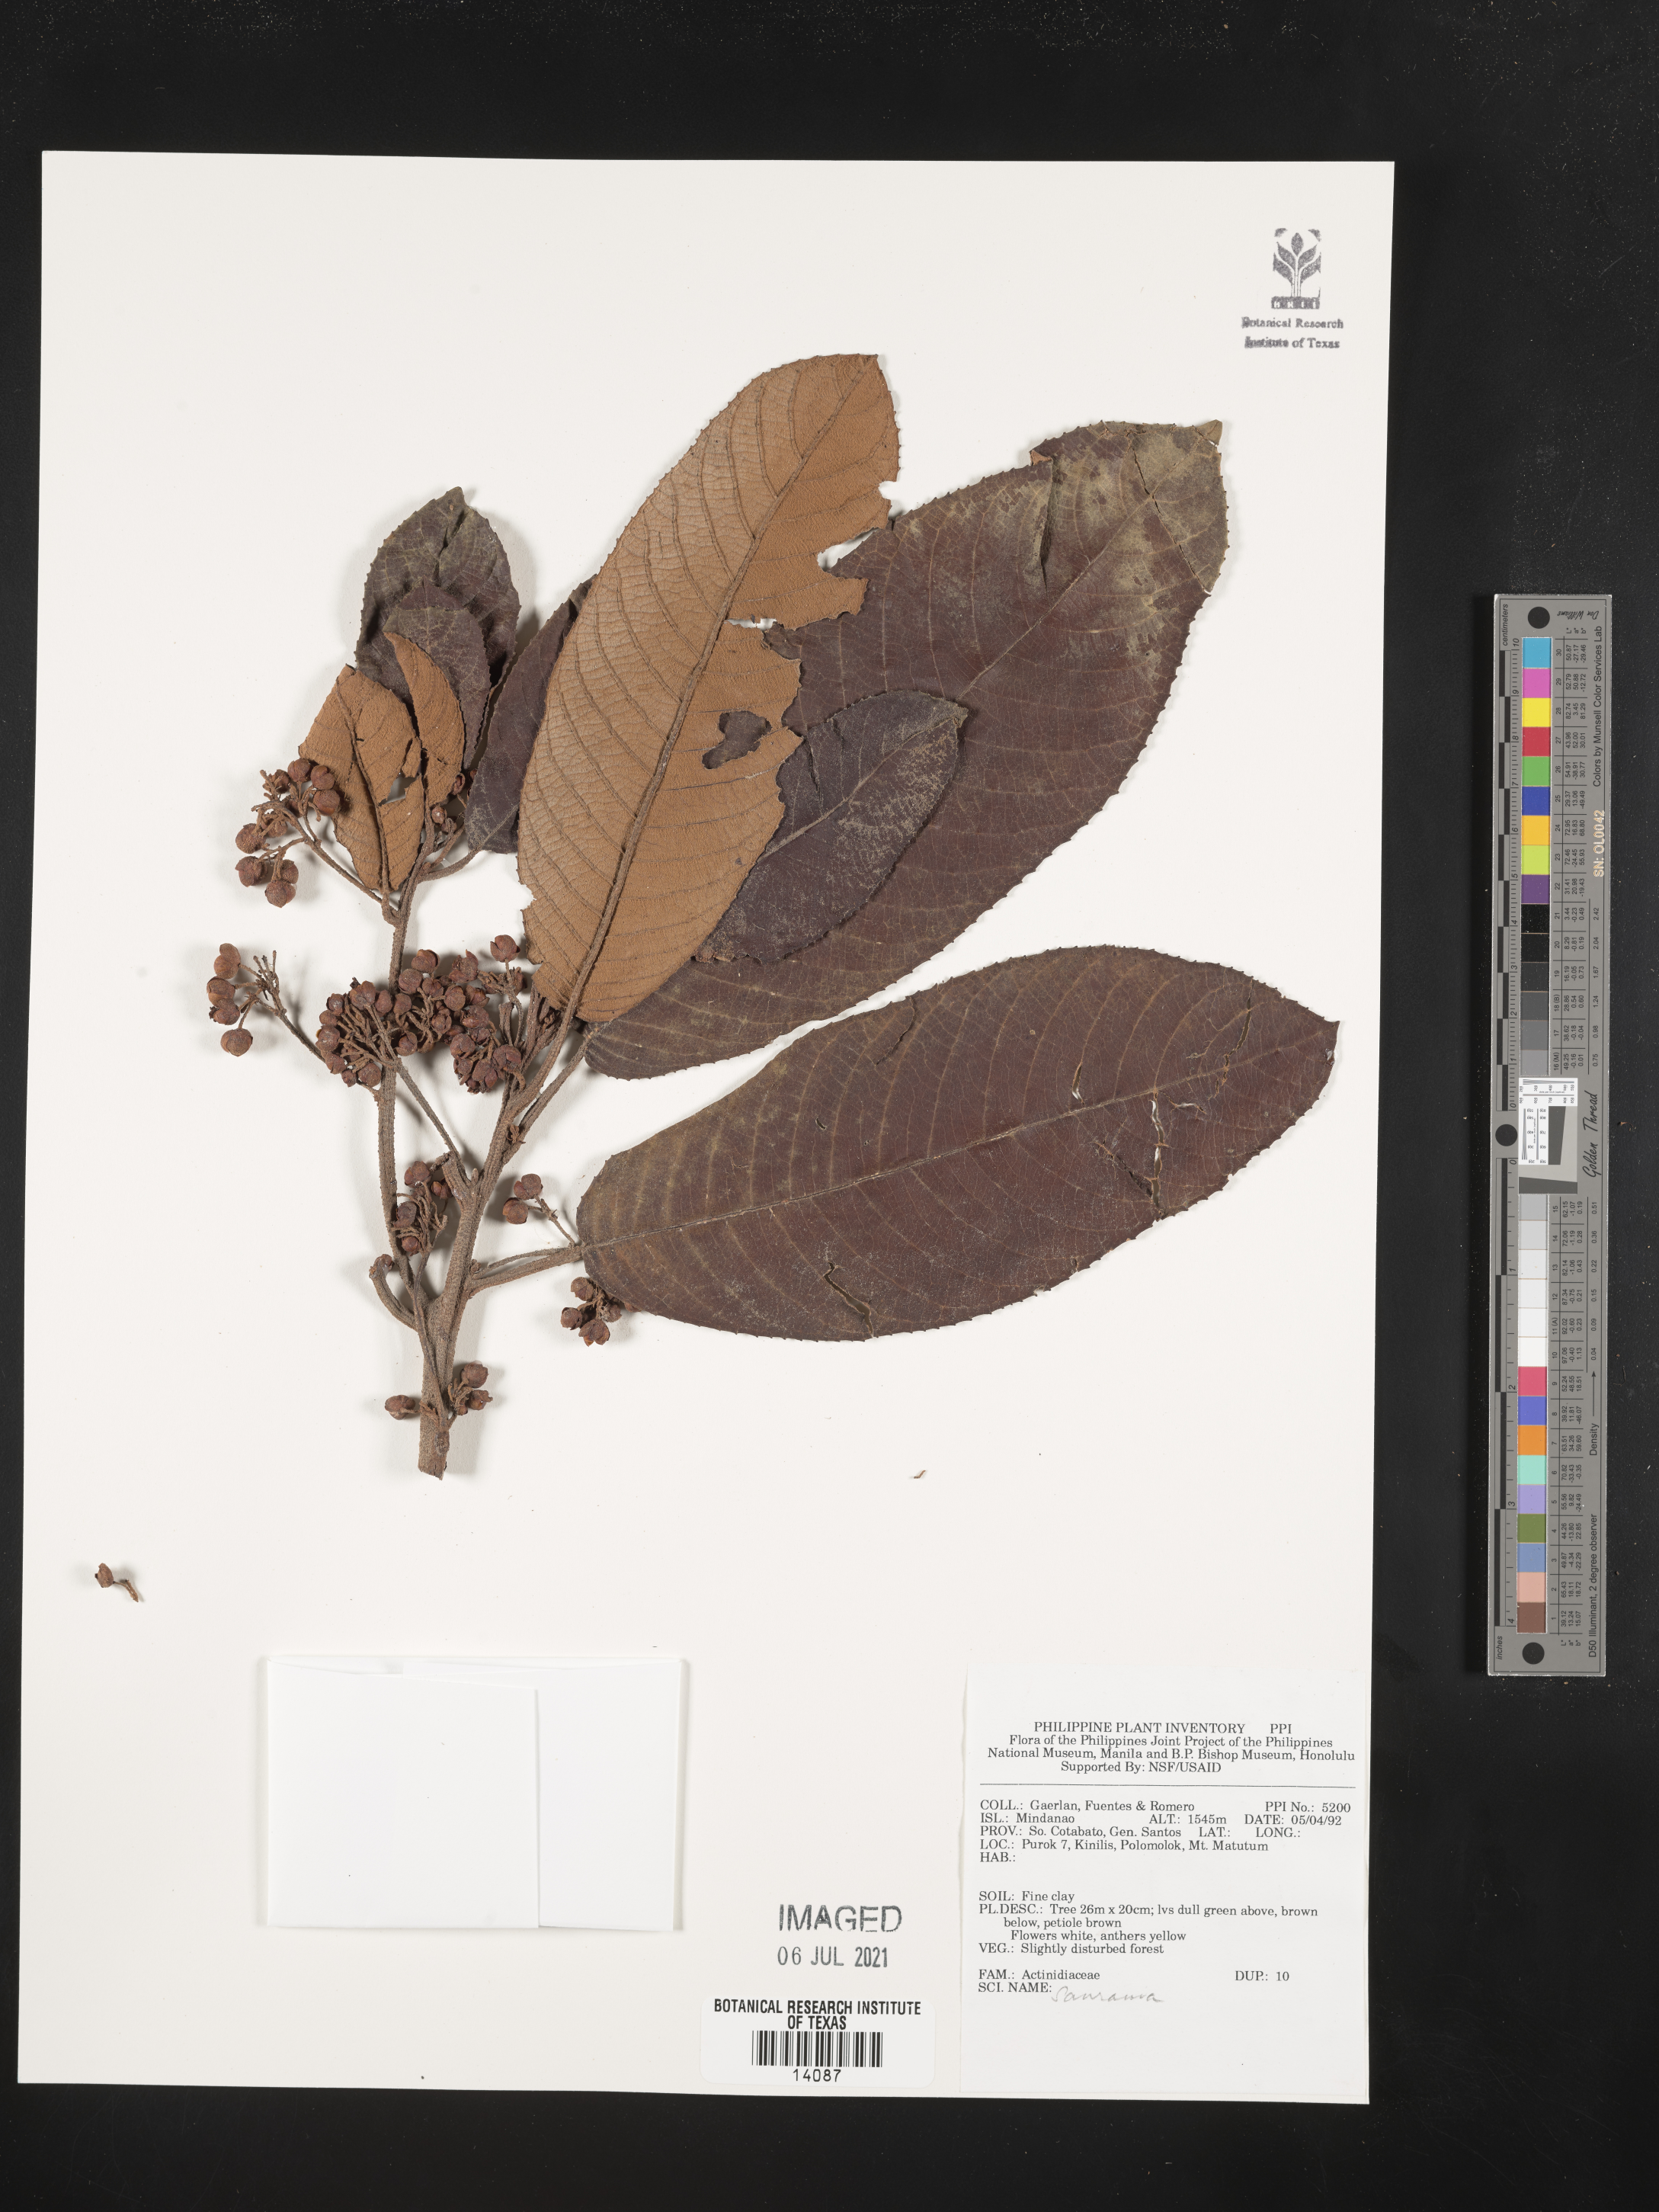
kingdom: Plantae
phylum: Tracheophyta
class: Magnoliopsida
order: Ericales
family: Actinidiaceae
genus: Saurauia
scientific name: Saurauia
